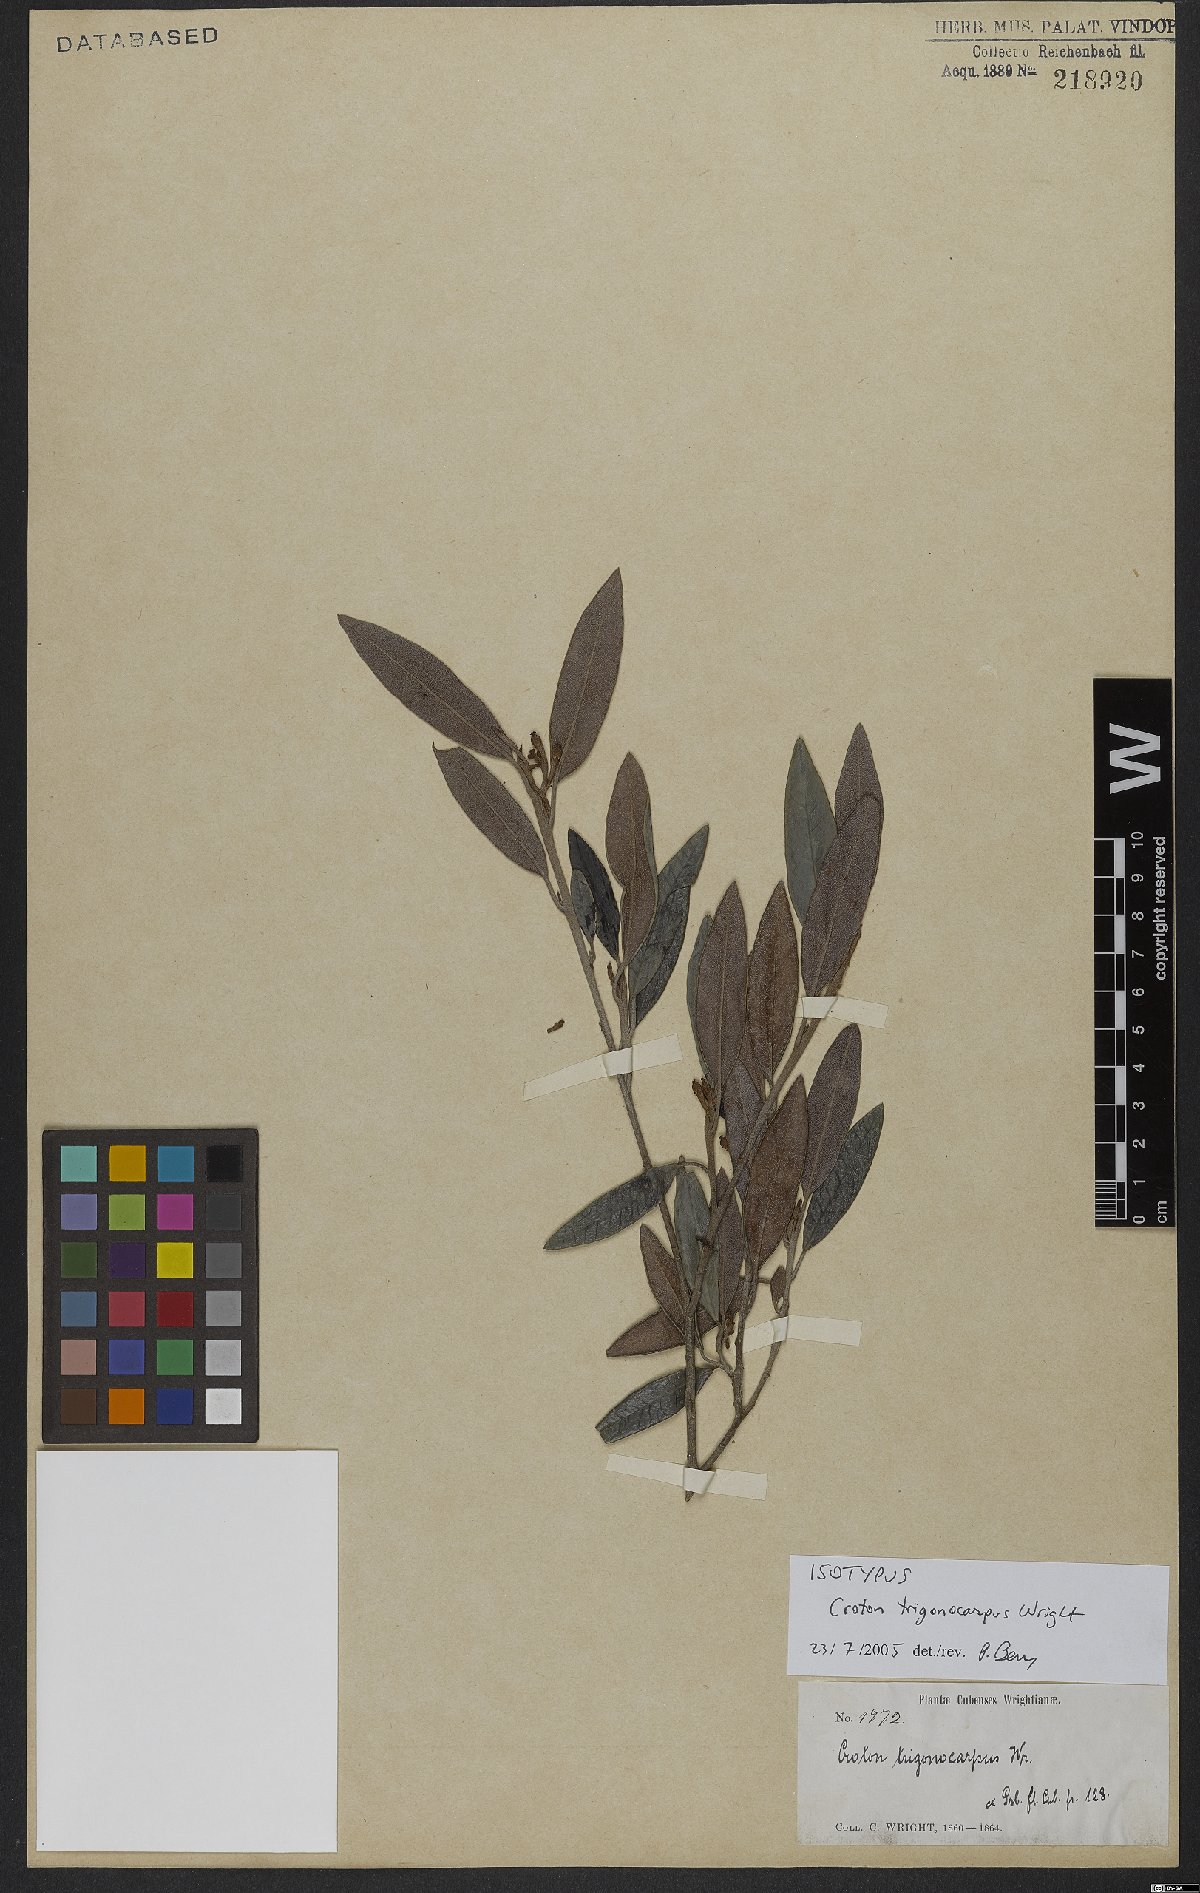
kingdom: Plantae
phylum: Tracheophyta
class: Magnoliopsida
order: Malpighiales
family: Euphorbiaceae
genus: Croton
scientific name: Croton trigonocarpus
